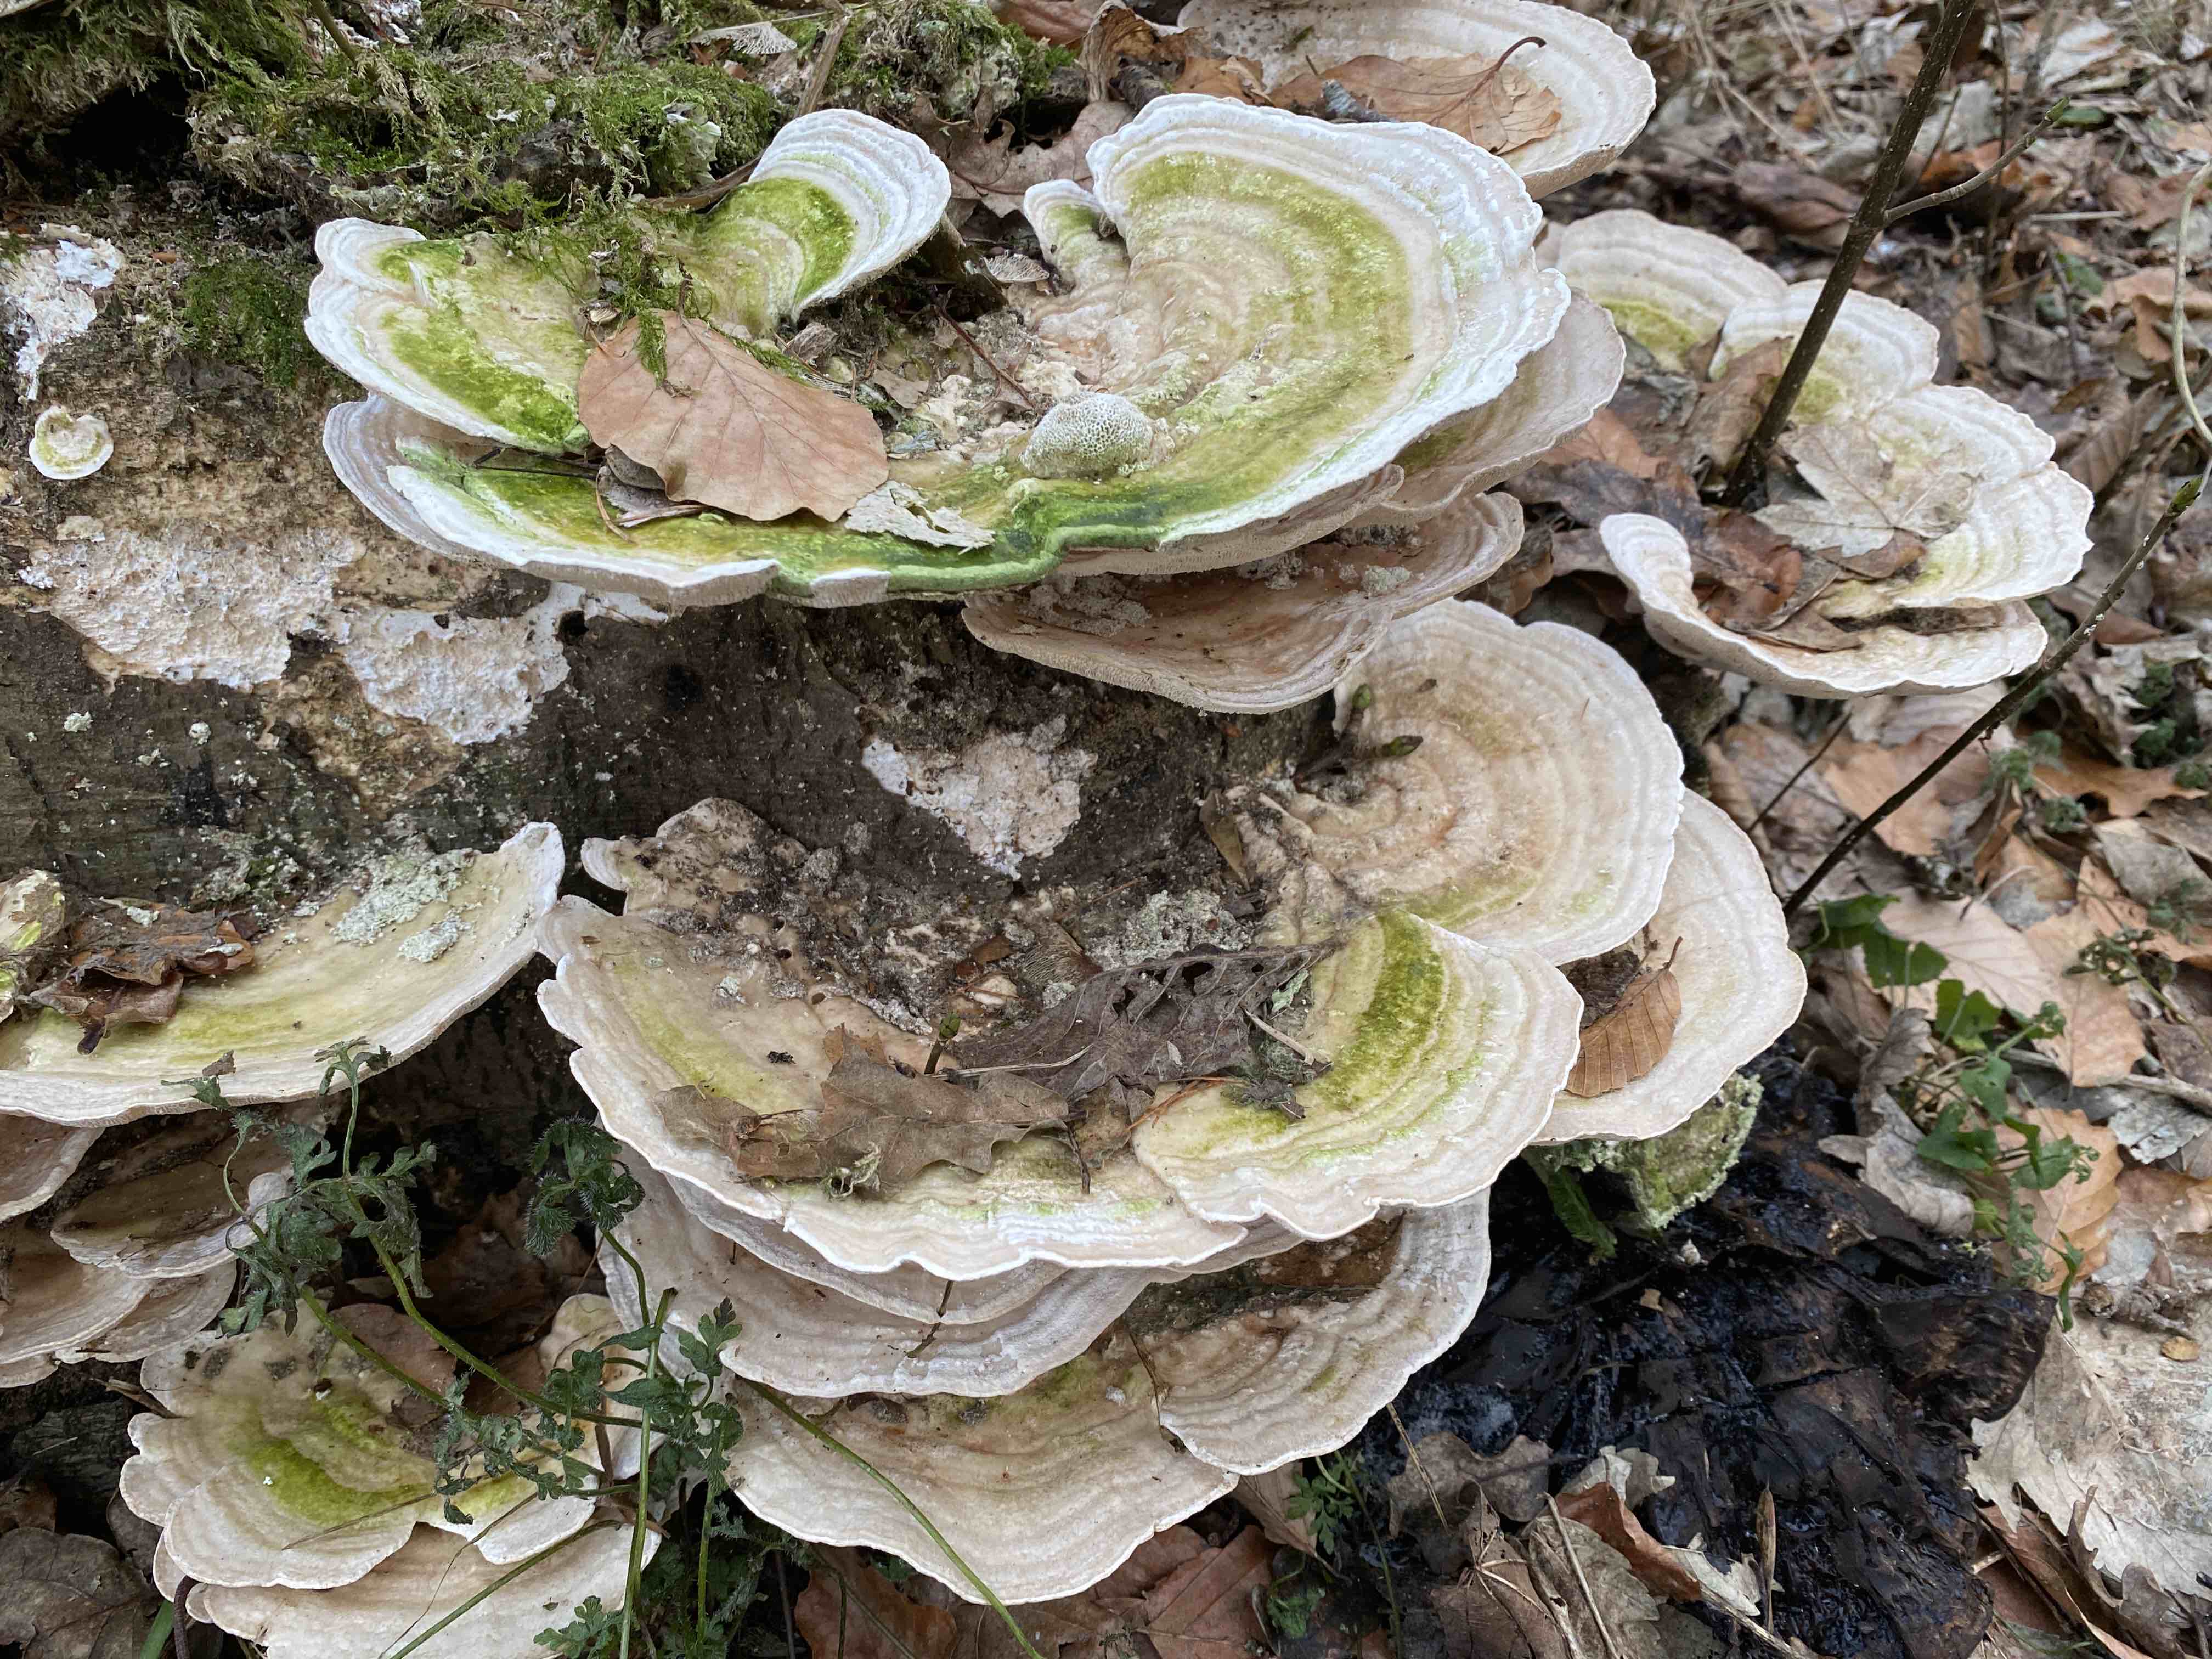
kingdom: Fungi
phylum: Basidiomycota
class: Agaricomycetes
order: Polyporales
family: Polyporaceae
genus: Trametes
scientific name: Trametes gibbosa
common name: puklet læderporesvamp
